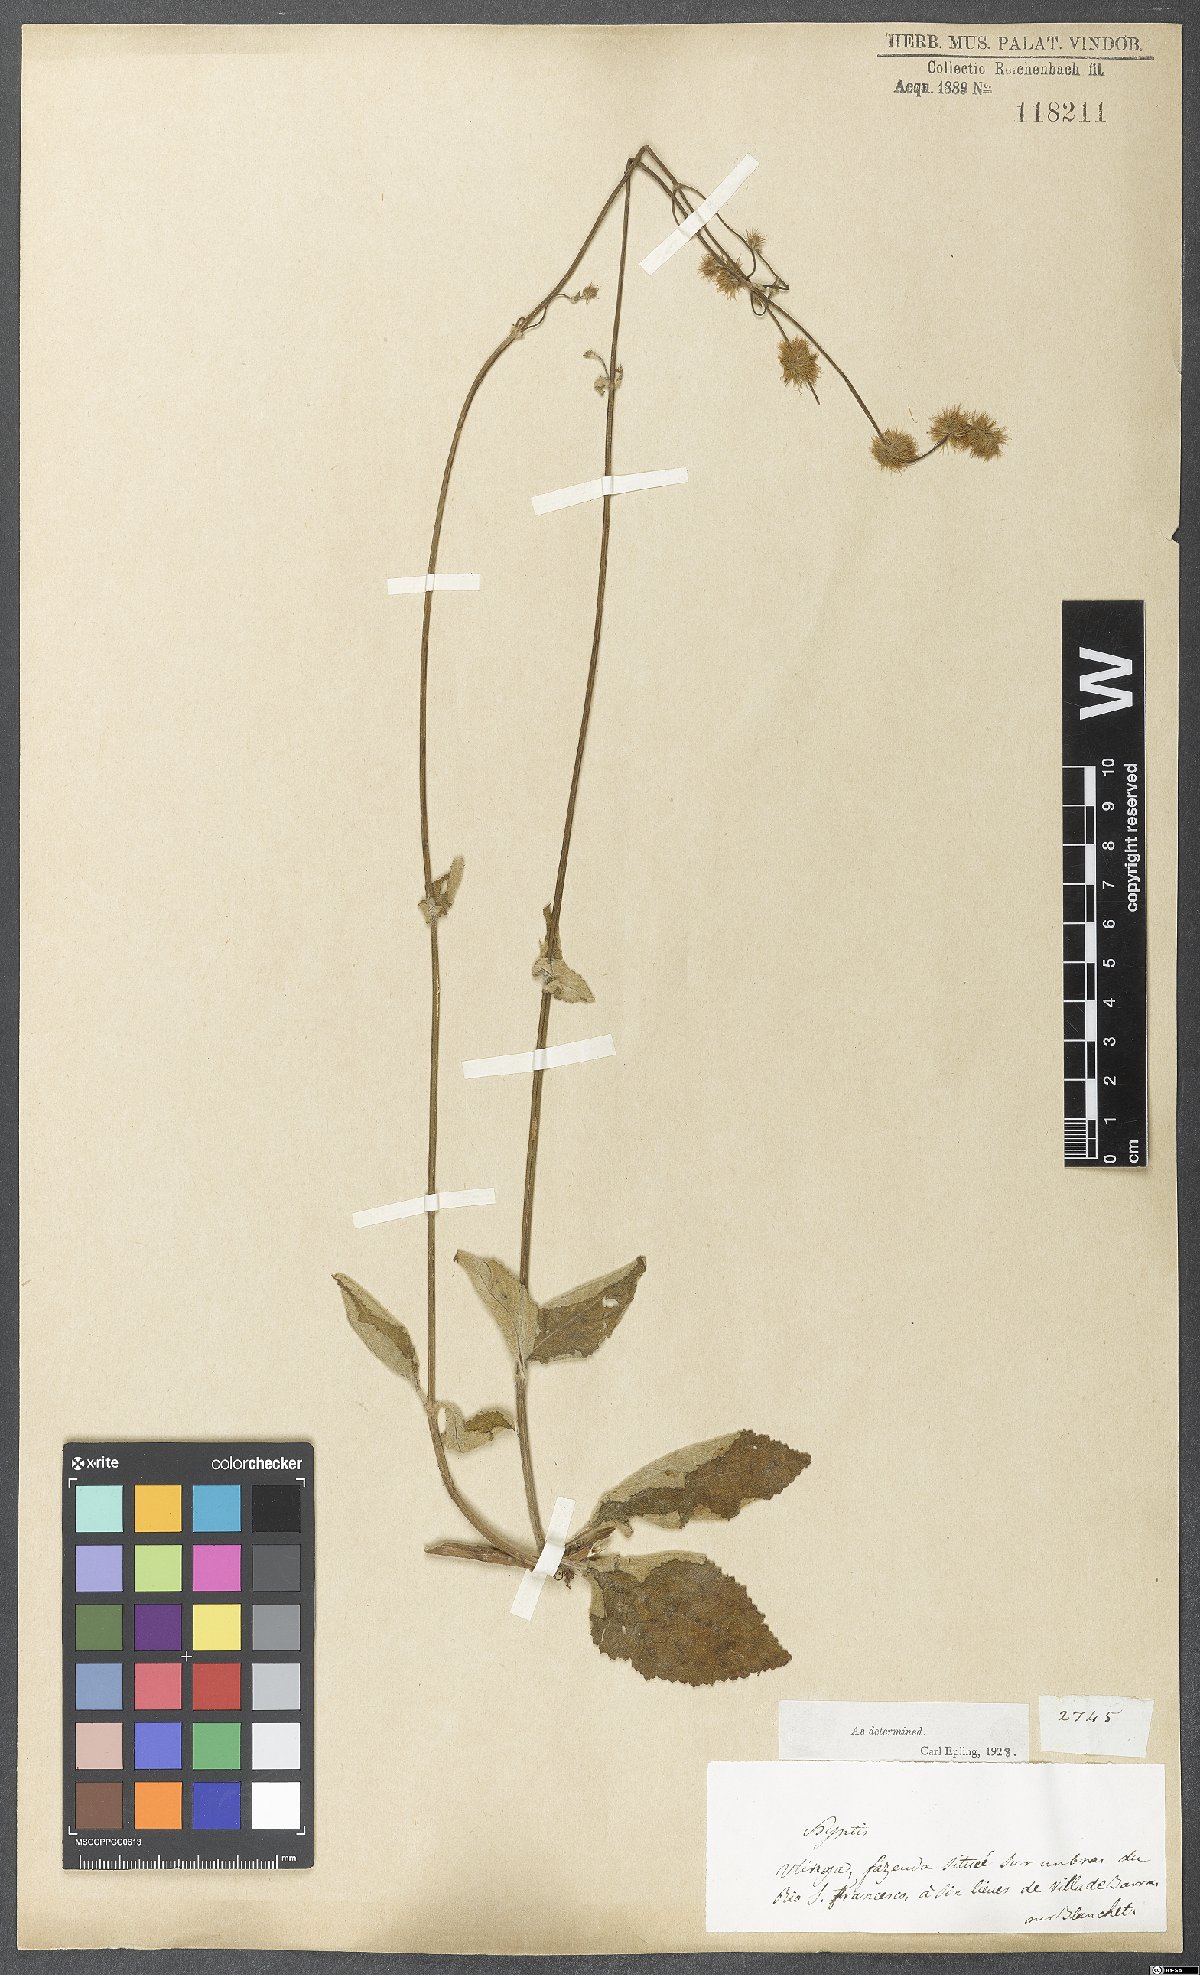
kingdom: Plantae
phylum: Tracheophyta
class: Magnoliopsida
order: Lamiales
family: Lamiaceae
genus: Gymneia
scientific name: Gymneia platanifolia
